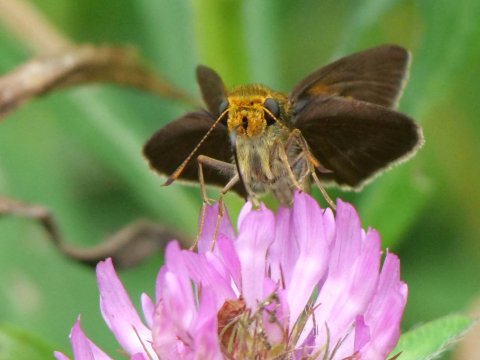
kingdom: Animalia
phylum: Arthropoda
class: Insecta
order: Lepidoptera
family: Hesperiidae
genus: Euphyes
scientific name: Euphyes vestris
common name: Dun Skipper
